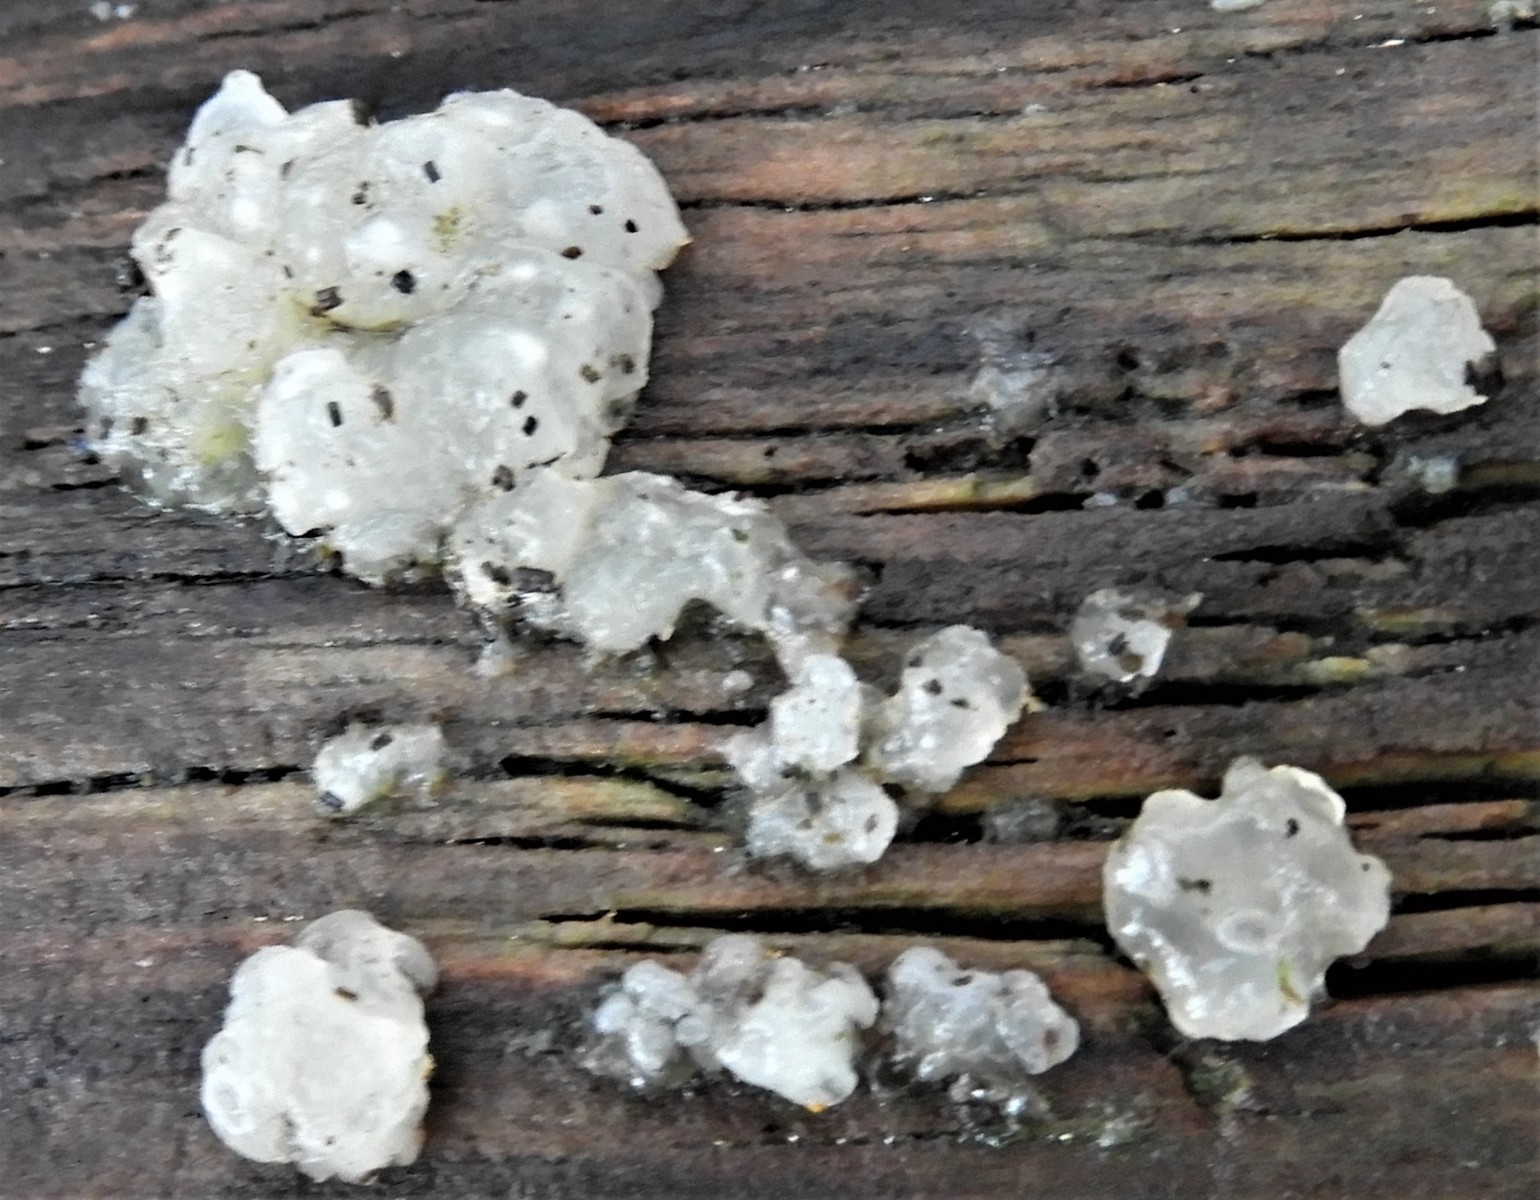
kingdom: Fungi
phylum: Basidiomycota
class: Agaricomycetes
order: Auriculariales
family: Hyaloriaceae
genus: Myxarium
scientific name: Myxarium nucleatum
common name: klar bævretop
